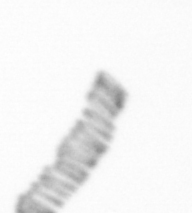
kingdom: Chromista
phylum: Ochrophyta
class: Bacillariophyceae
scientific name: Bacillariophyceae
